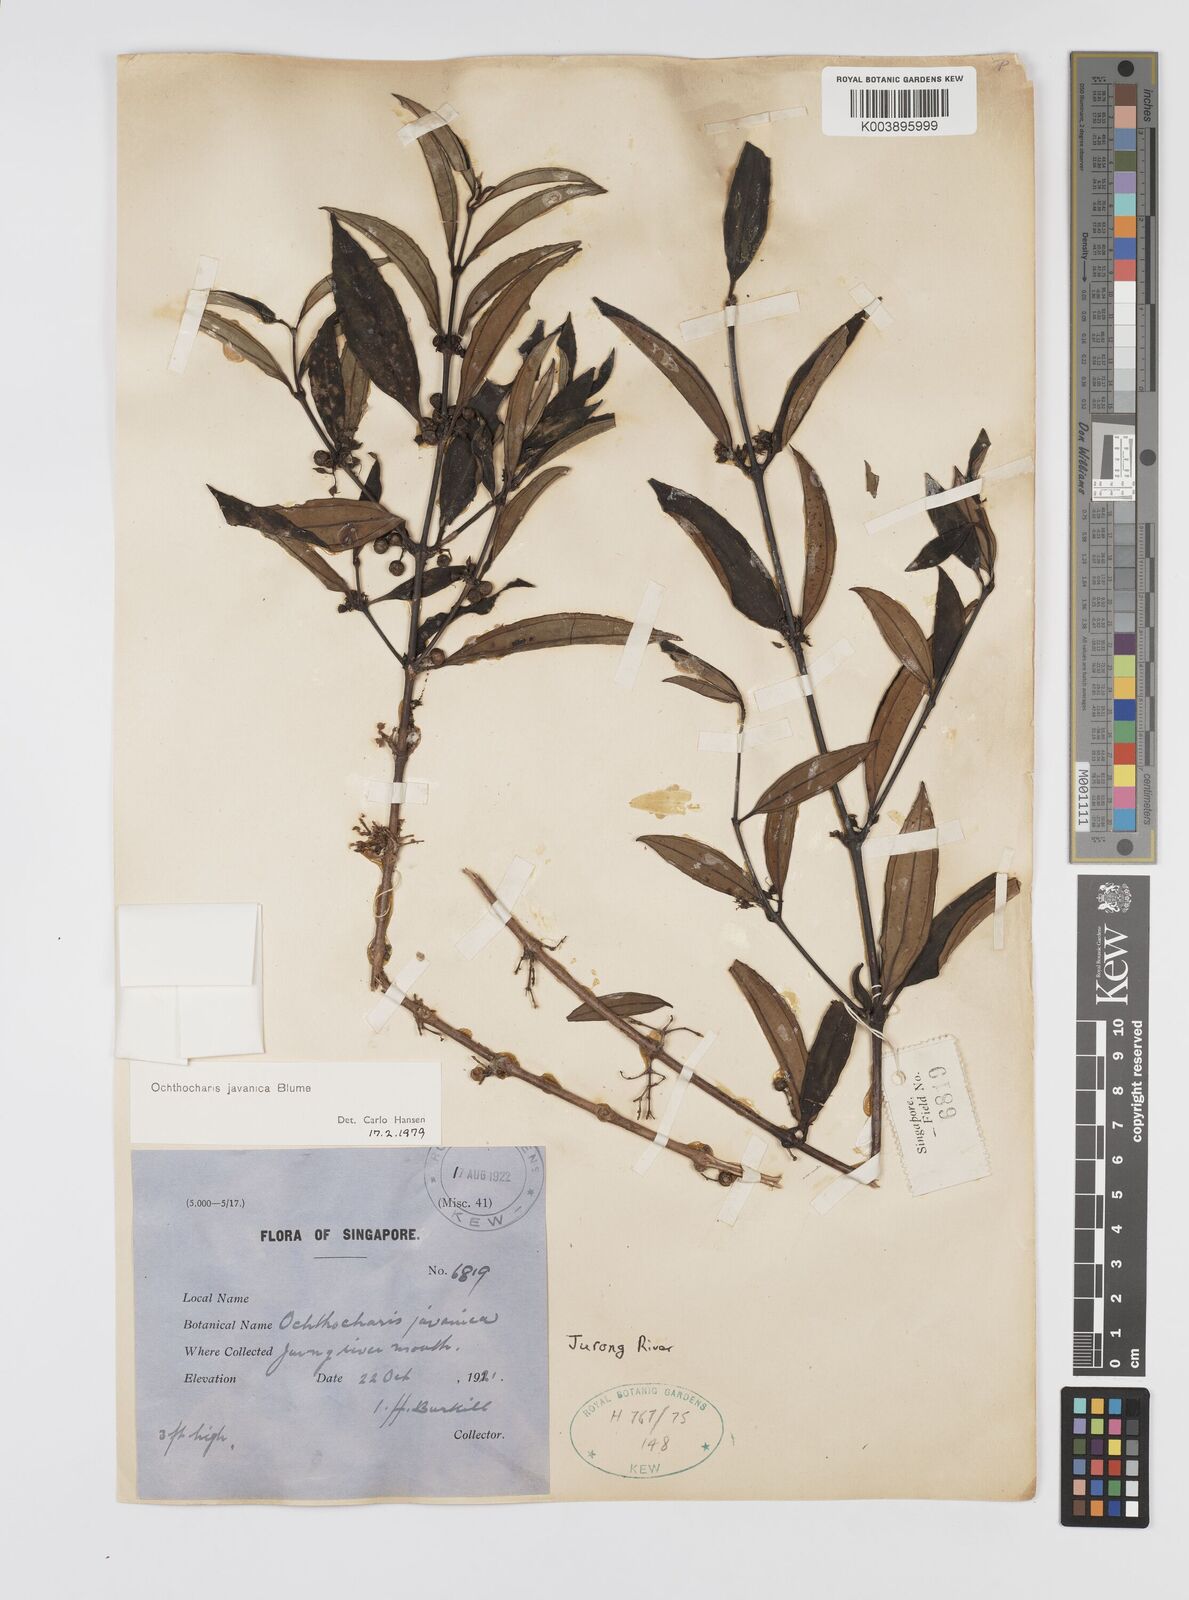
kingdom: Plantae
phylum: Tracheophyta
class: Magnoliopsida
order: Myrtales
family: Melastomataceae
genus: Ochthocharis
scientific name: Ochthocharis javanica
